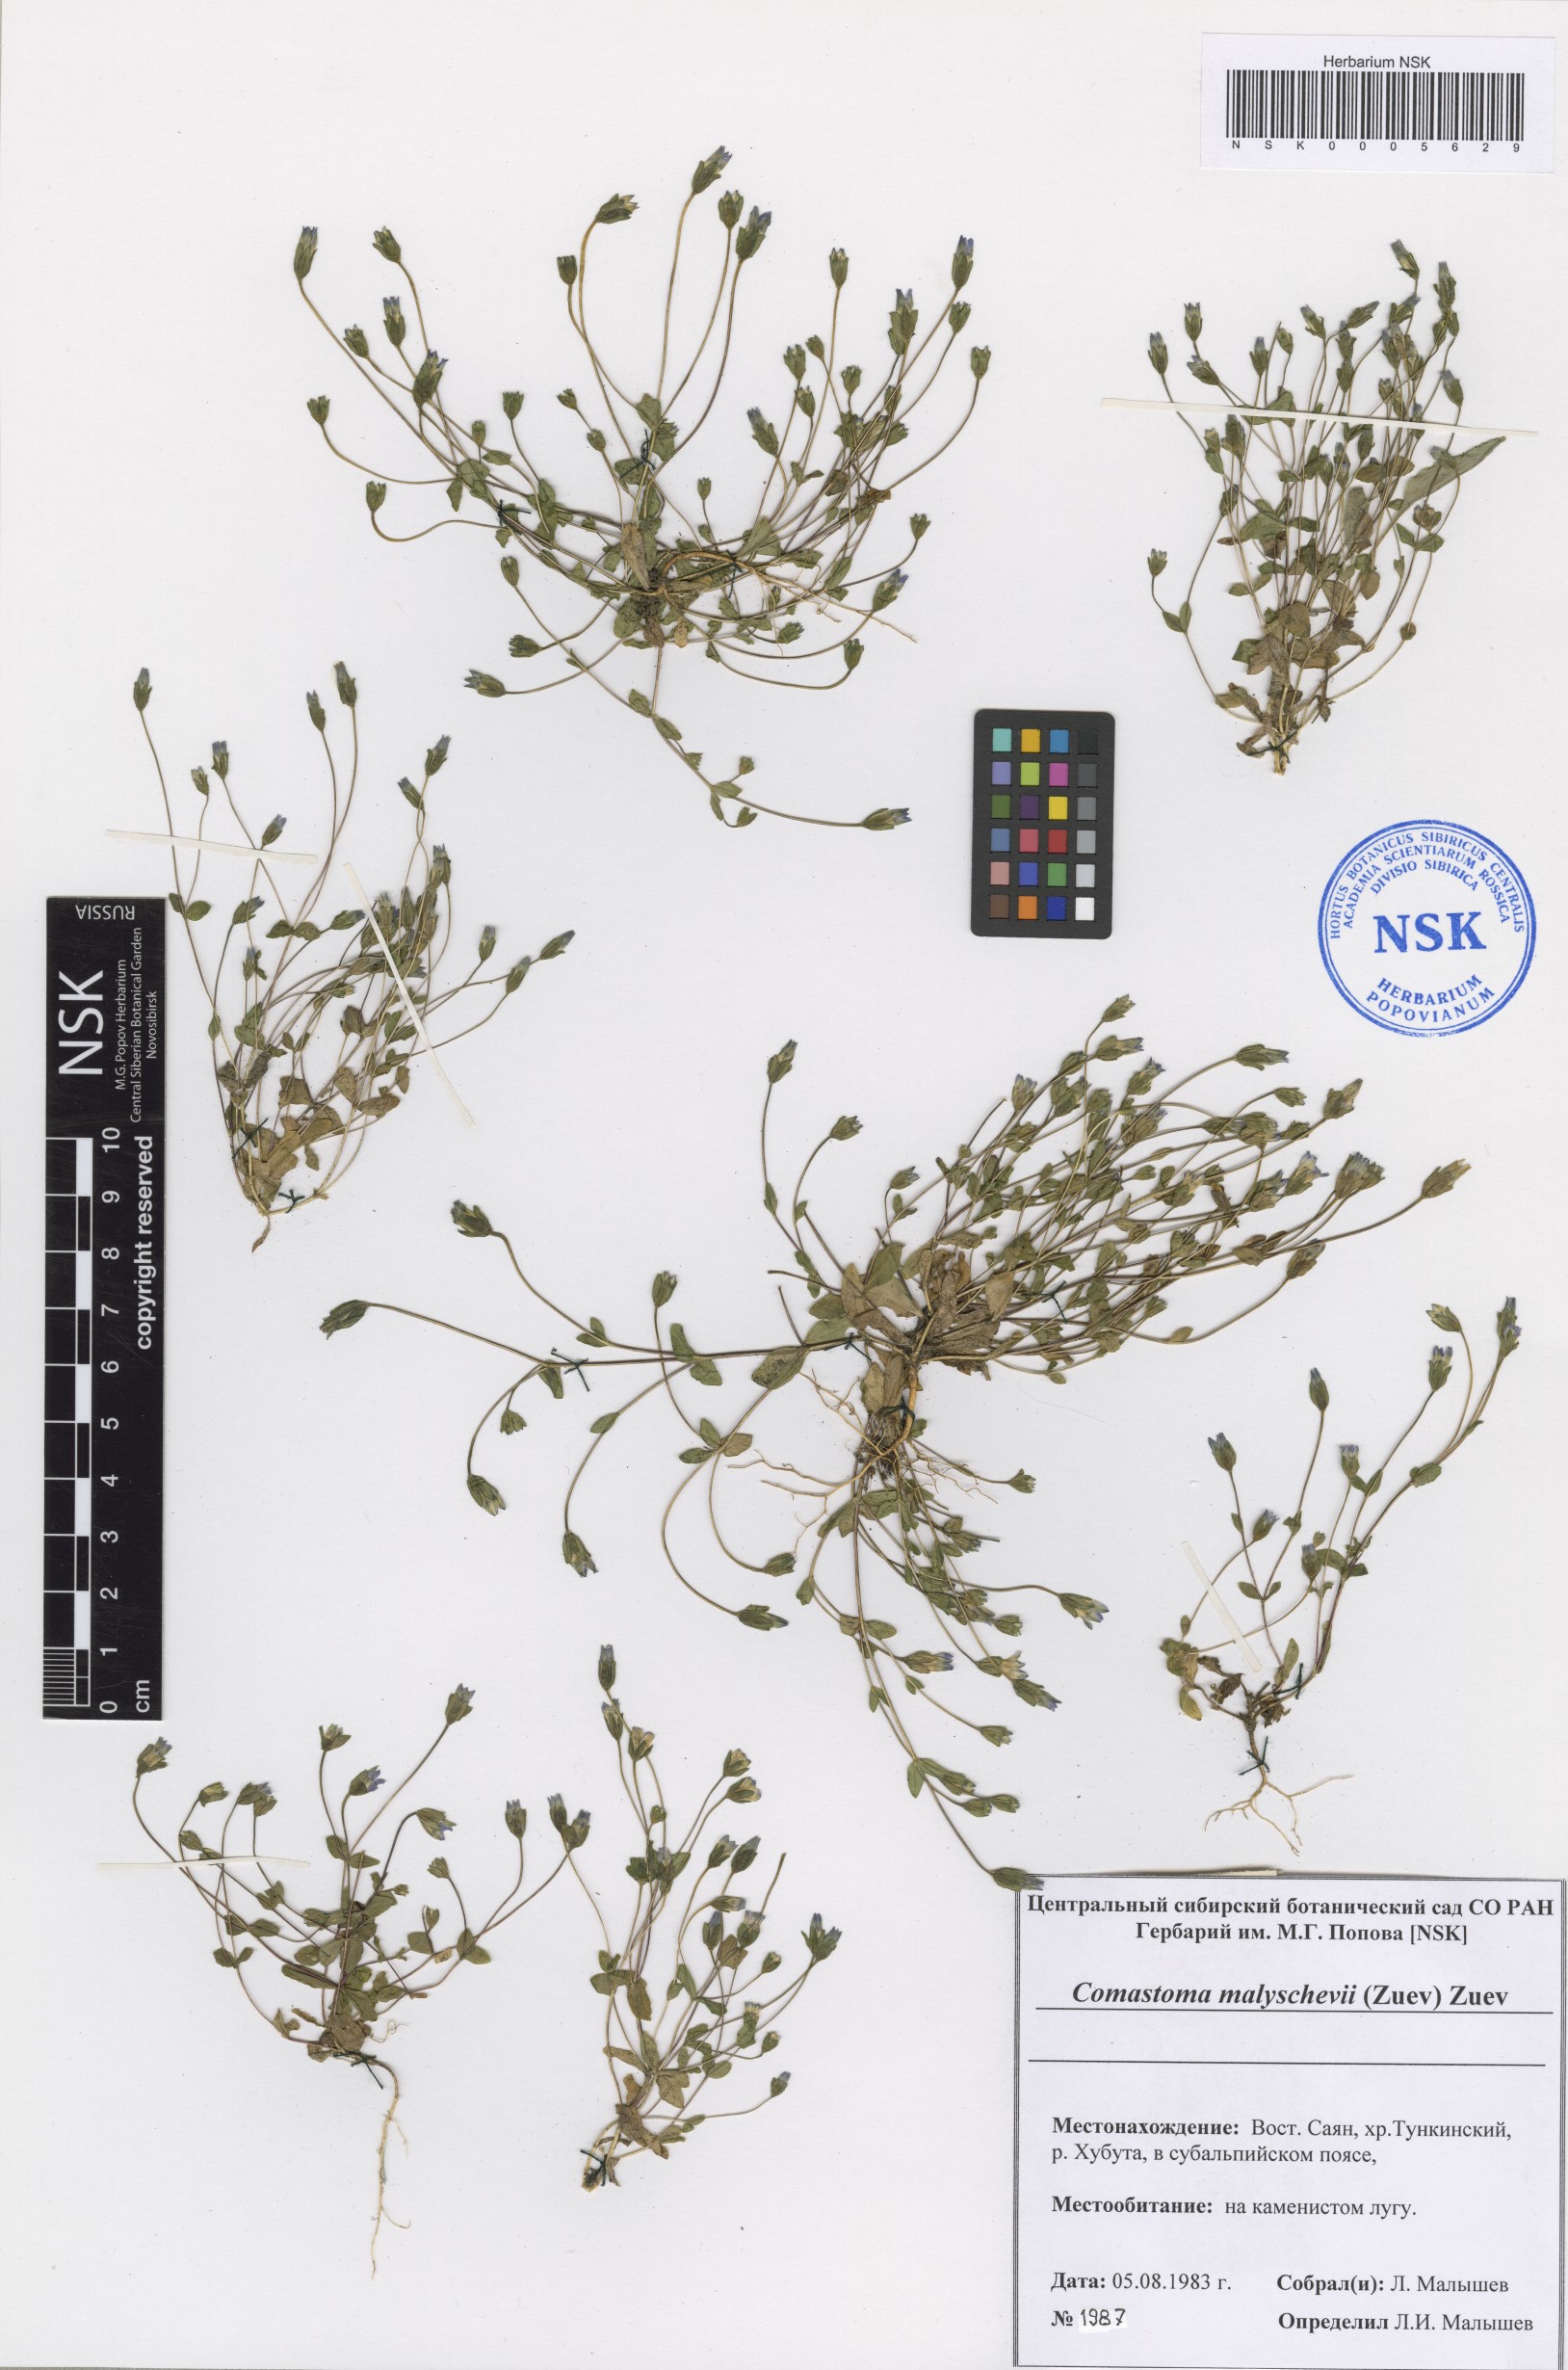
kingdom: Plantae
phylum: Tracheophyta
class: Magnoliopsida
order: Gentianales
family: Gentianaceae
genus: Comastoma
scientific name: Comastoma malyschevii
